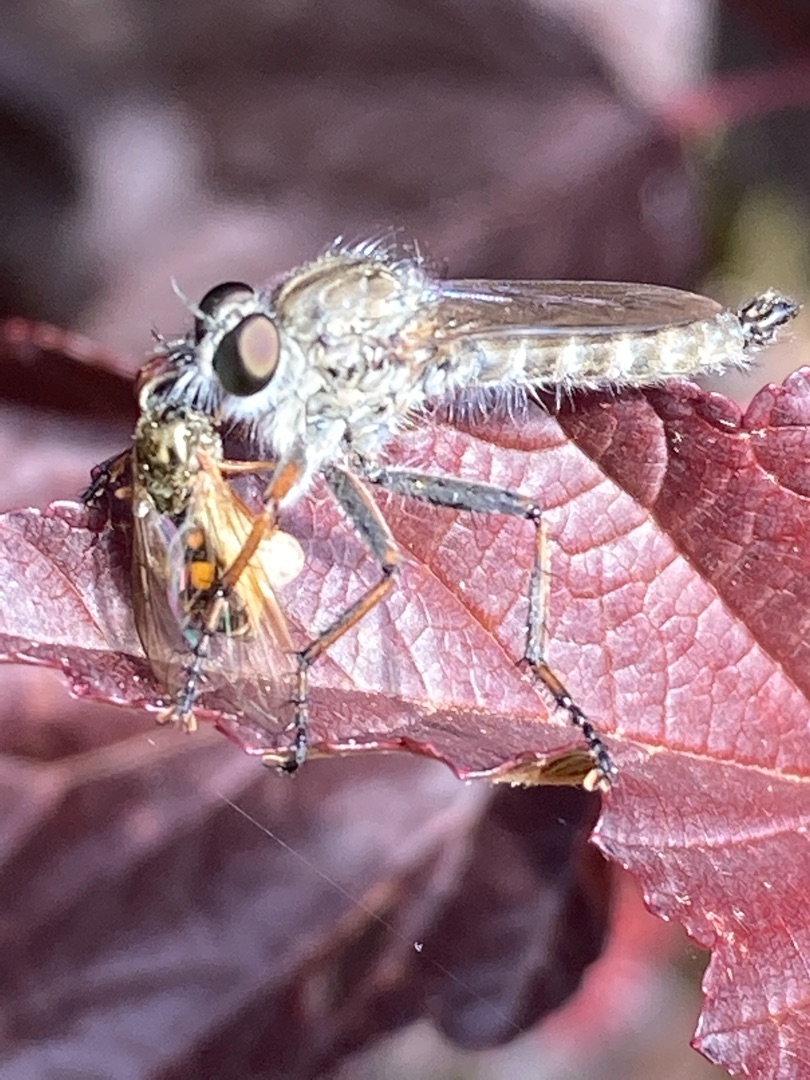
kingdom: Animalia
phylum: Arthropoda
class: Insecta
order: Diptera
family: Asilidae
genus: Machimus
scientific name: Machimus atricapillus
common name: Sort hårrovflue
